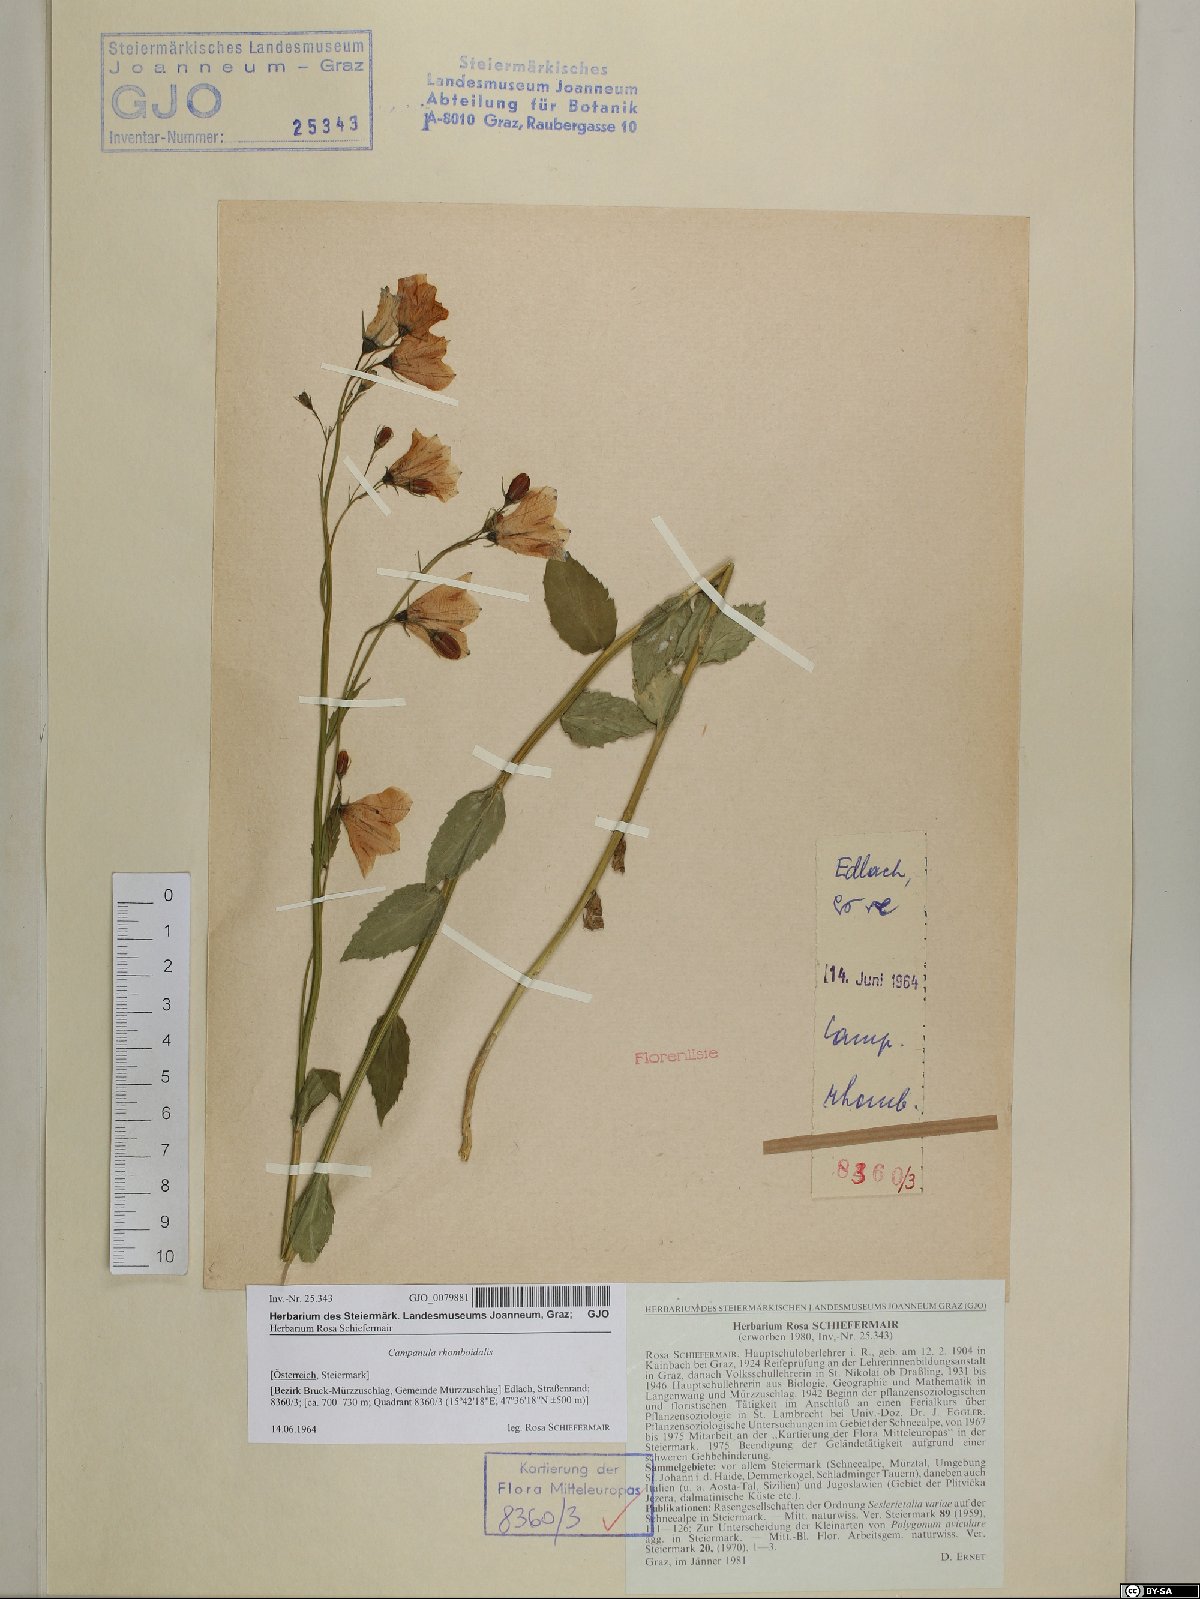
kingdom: Plantae
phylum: Tracheophyta
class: Magnoliopsida
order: Asterales
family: Campanulaceae
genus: Campanula
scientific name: Campanula rhomboidalis
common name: Broad-leaved harebell
